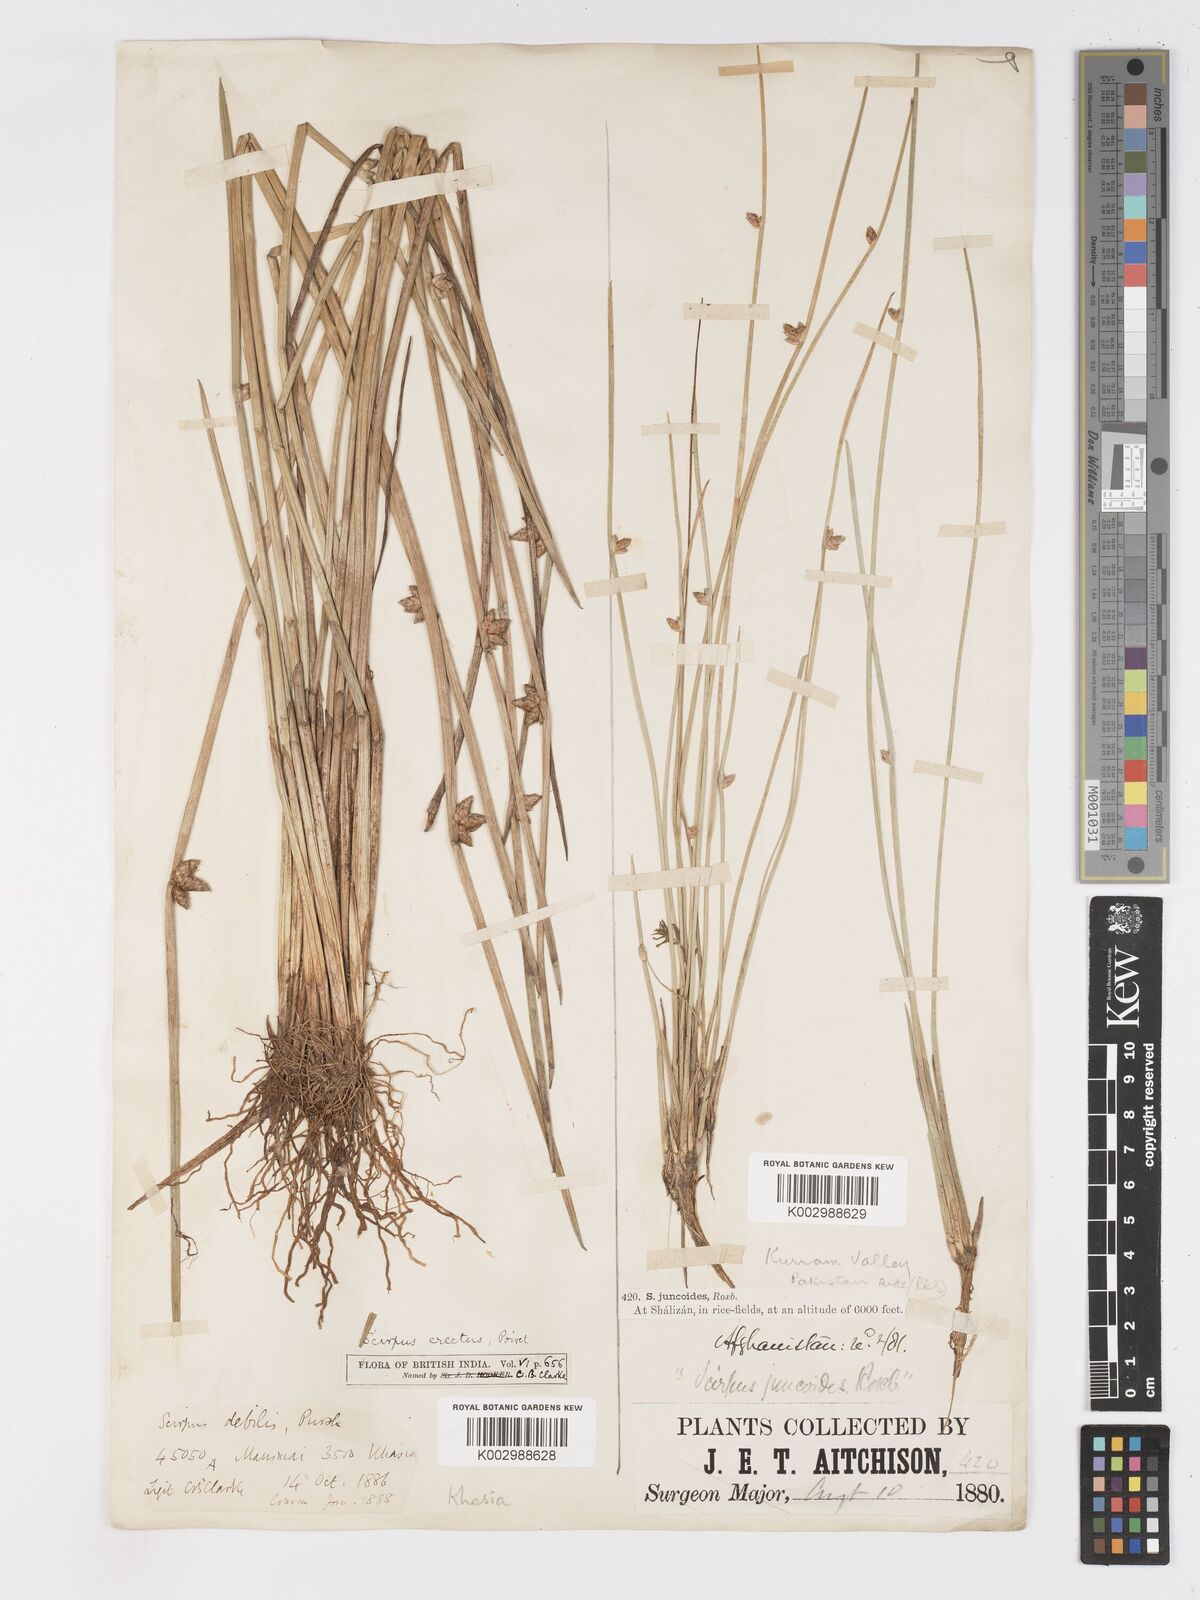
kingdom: Plantae
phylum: Tracheophyta
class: Liliopsida
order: Poales
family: Cyperaceae
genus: Schoenoplectiella
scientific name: Schoenoplectiella juncoides
